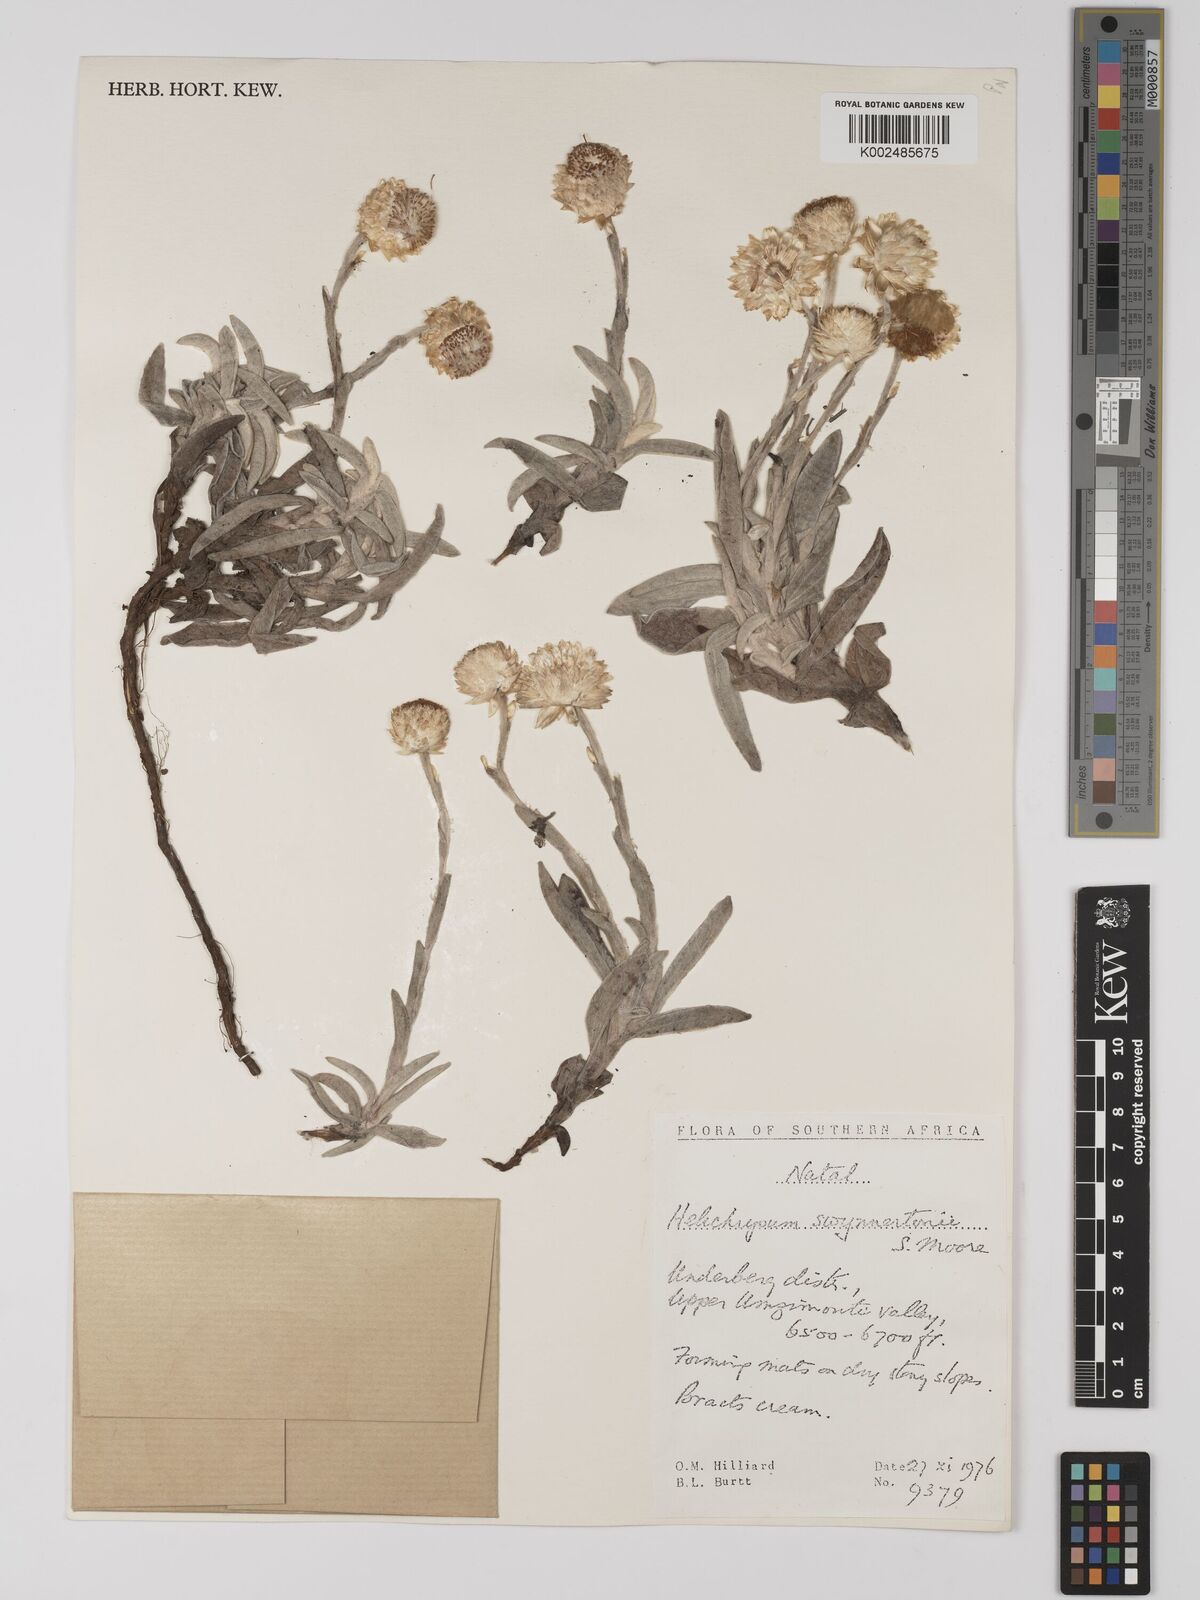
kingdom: Plantae
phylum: Tracheophyta
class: Magnoliopsida
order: Asterales
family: Asteraceae
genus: Helichrysum
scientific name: Helichrysum swynnertonii
